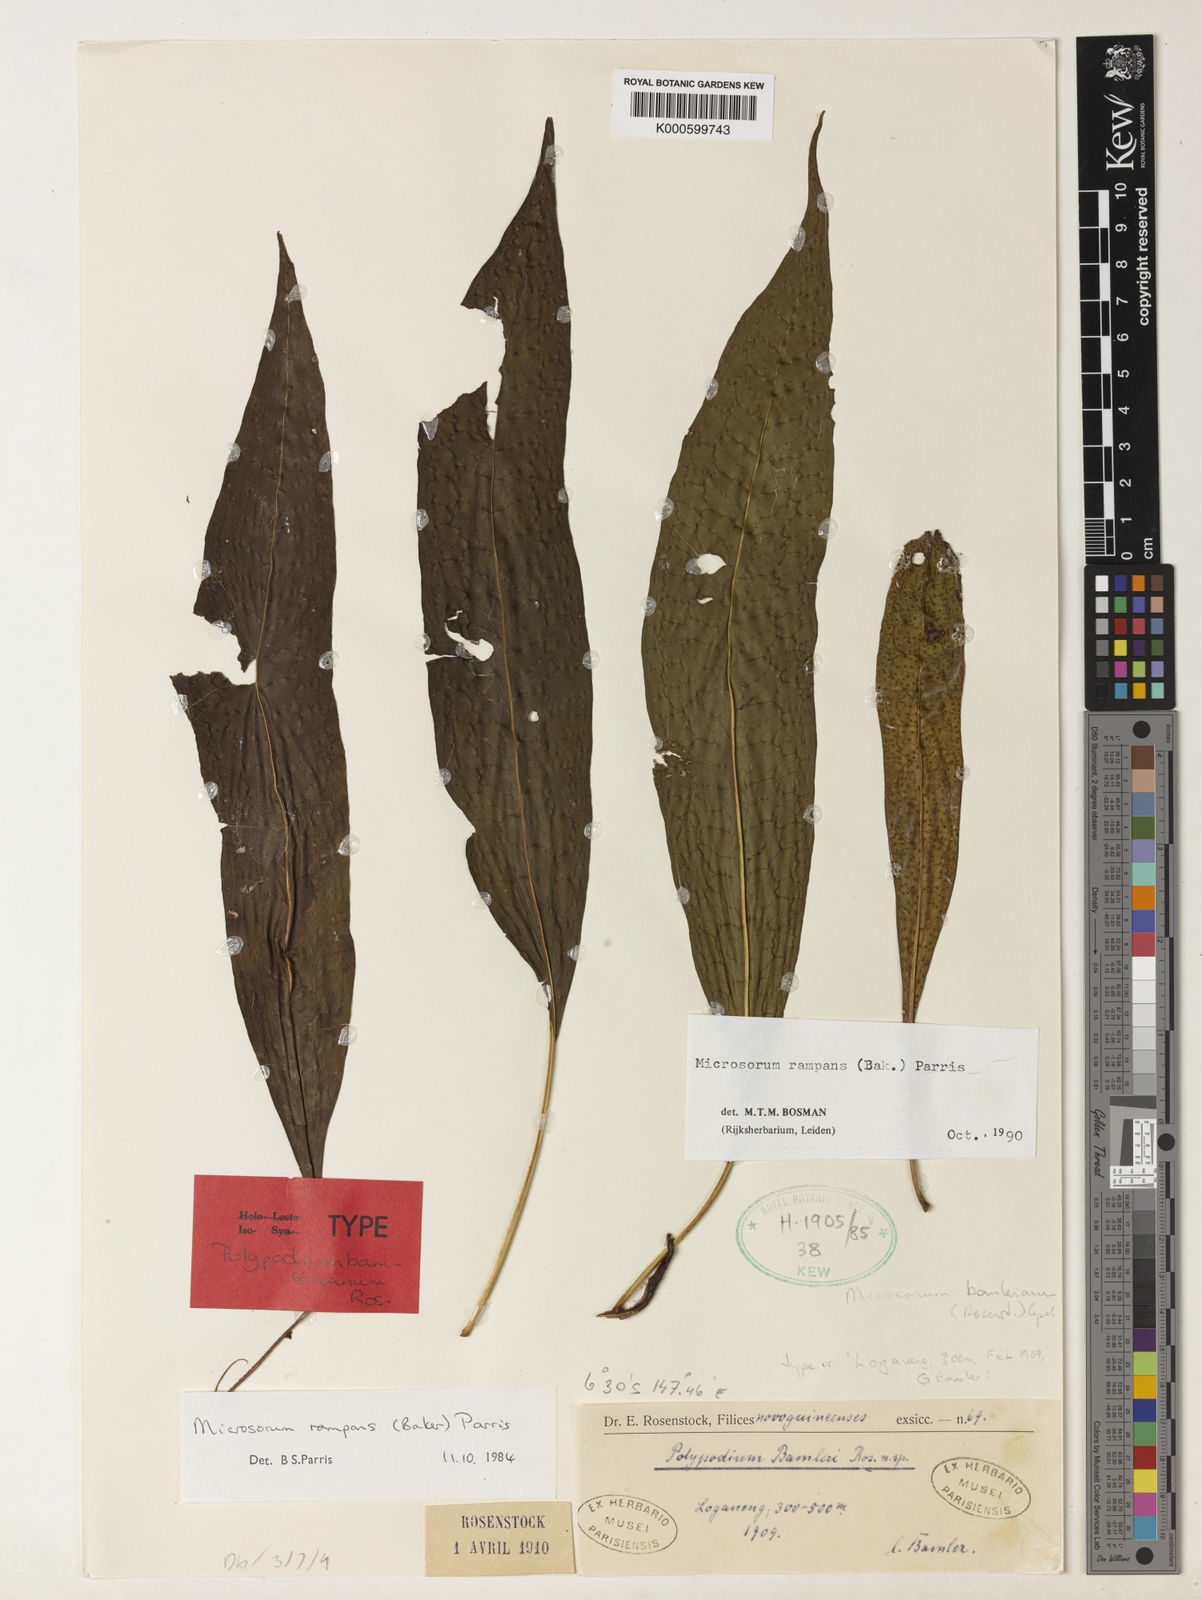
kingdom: Plantae
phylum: Tracheophyta
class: Polypodiopsida
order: Polypodiales
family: Polypodiaceae
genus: Microsorum
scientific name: Microsorum rampans
